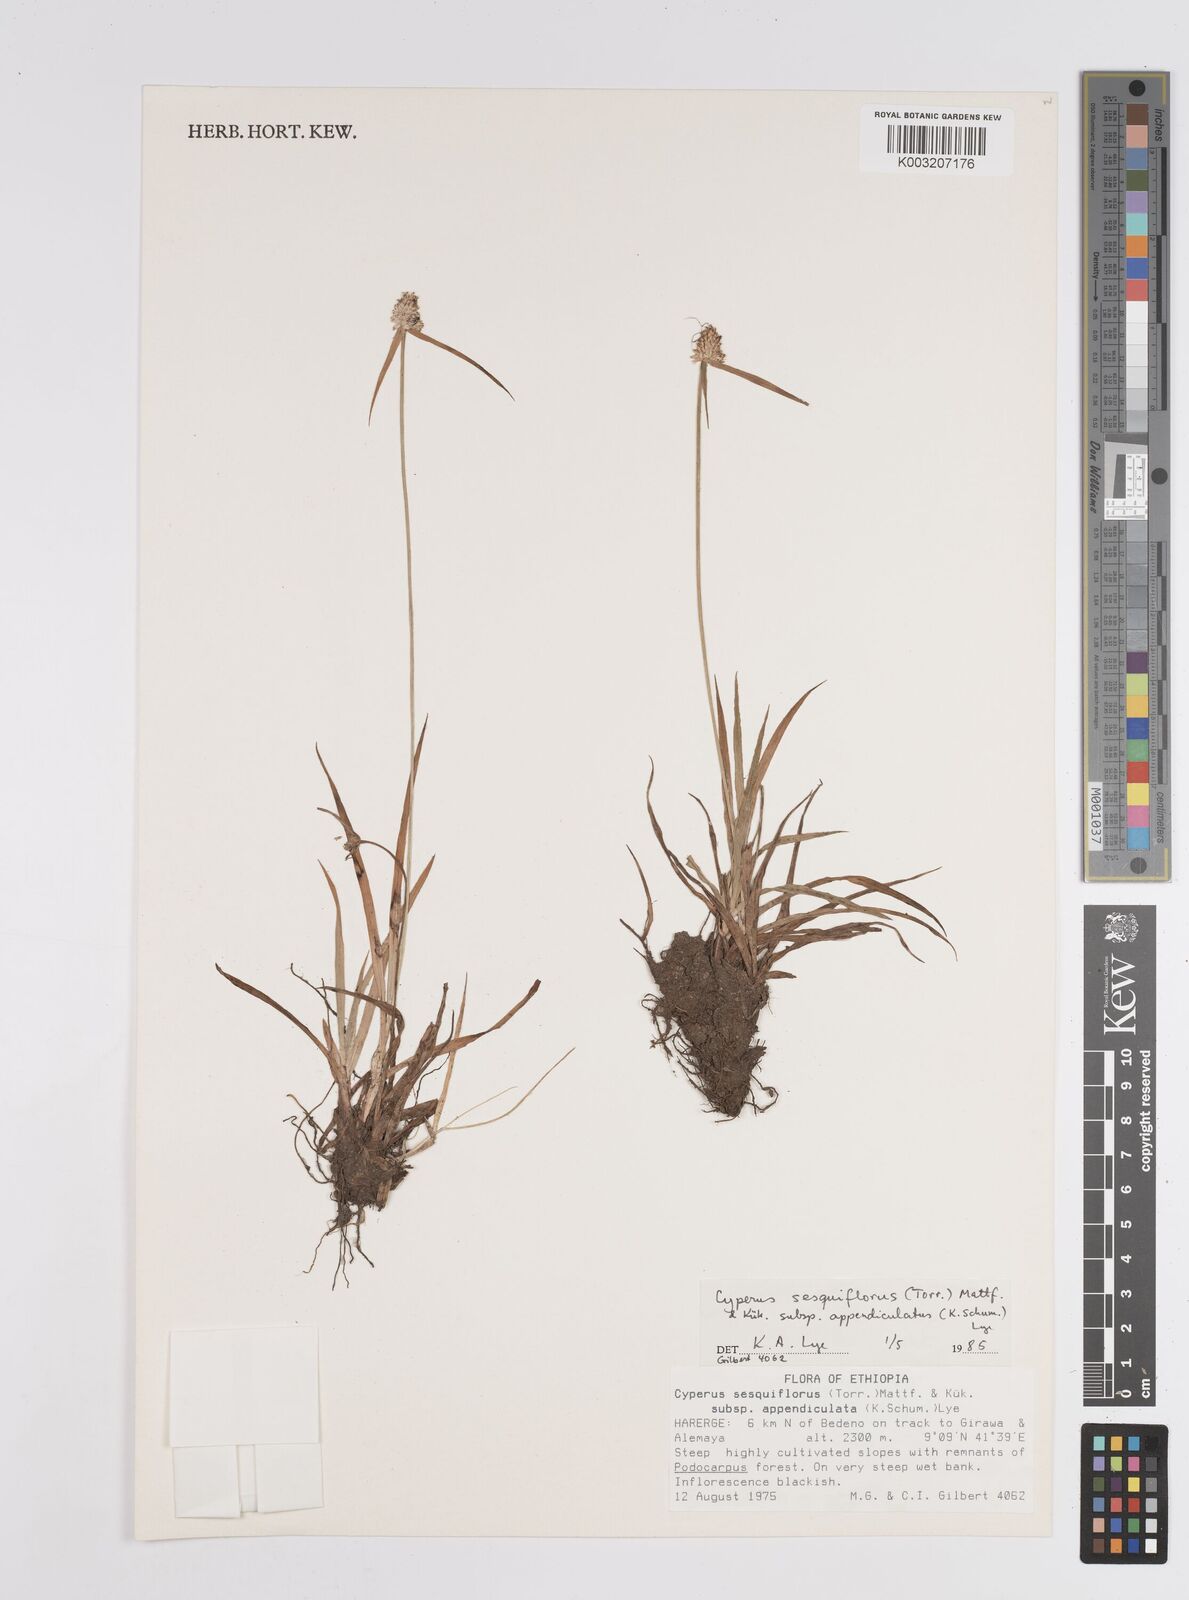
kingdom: Plantae
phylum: Tracheophyta
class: Liliopsida
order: Poales
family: Cyperaceae
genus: Cyperus
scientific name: Cyperus
